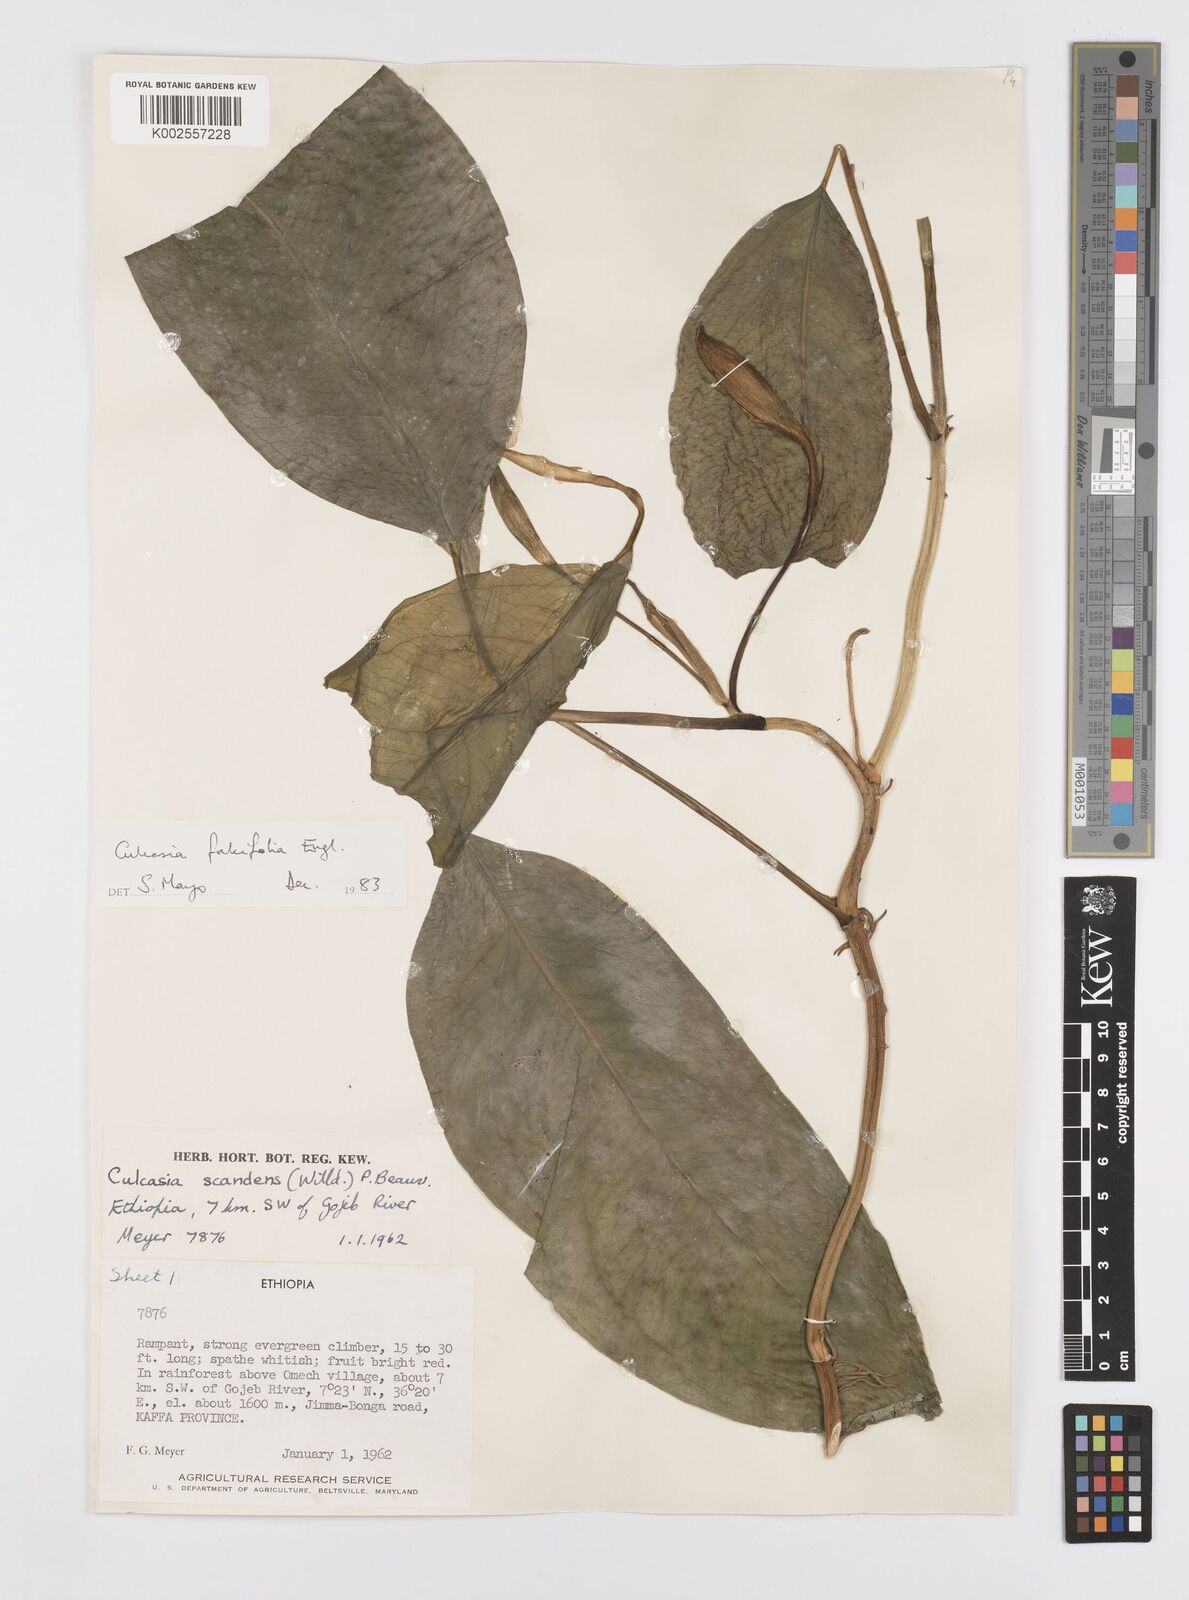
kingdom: Plantae
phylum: Tracheophyta
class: Liliopsida
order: Alismatales
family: Araceae
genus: Culcasia
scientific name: Culcasia falcifolia
